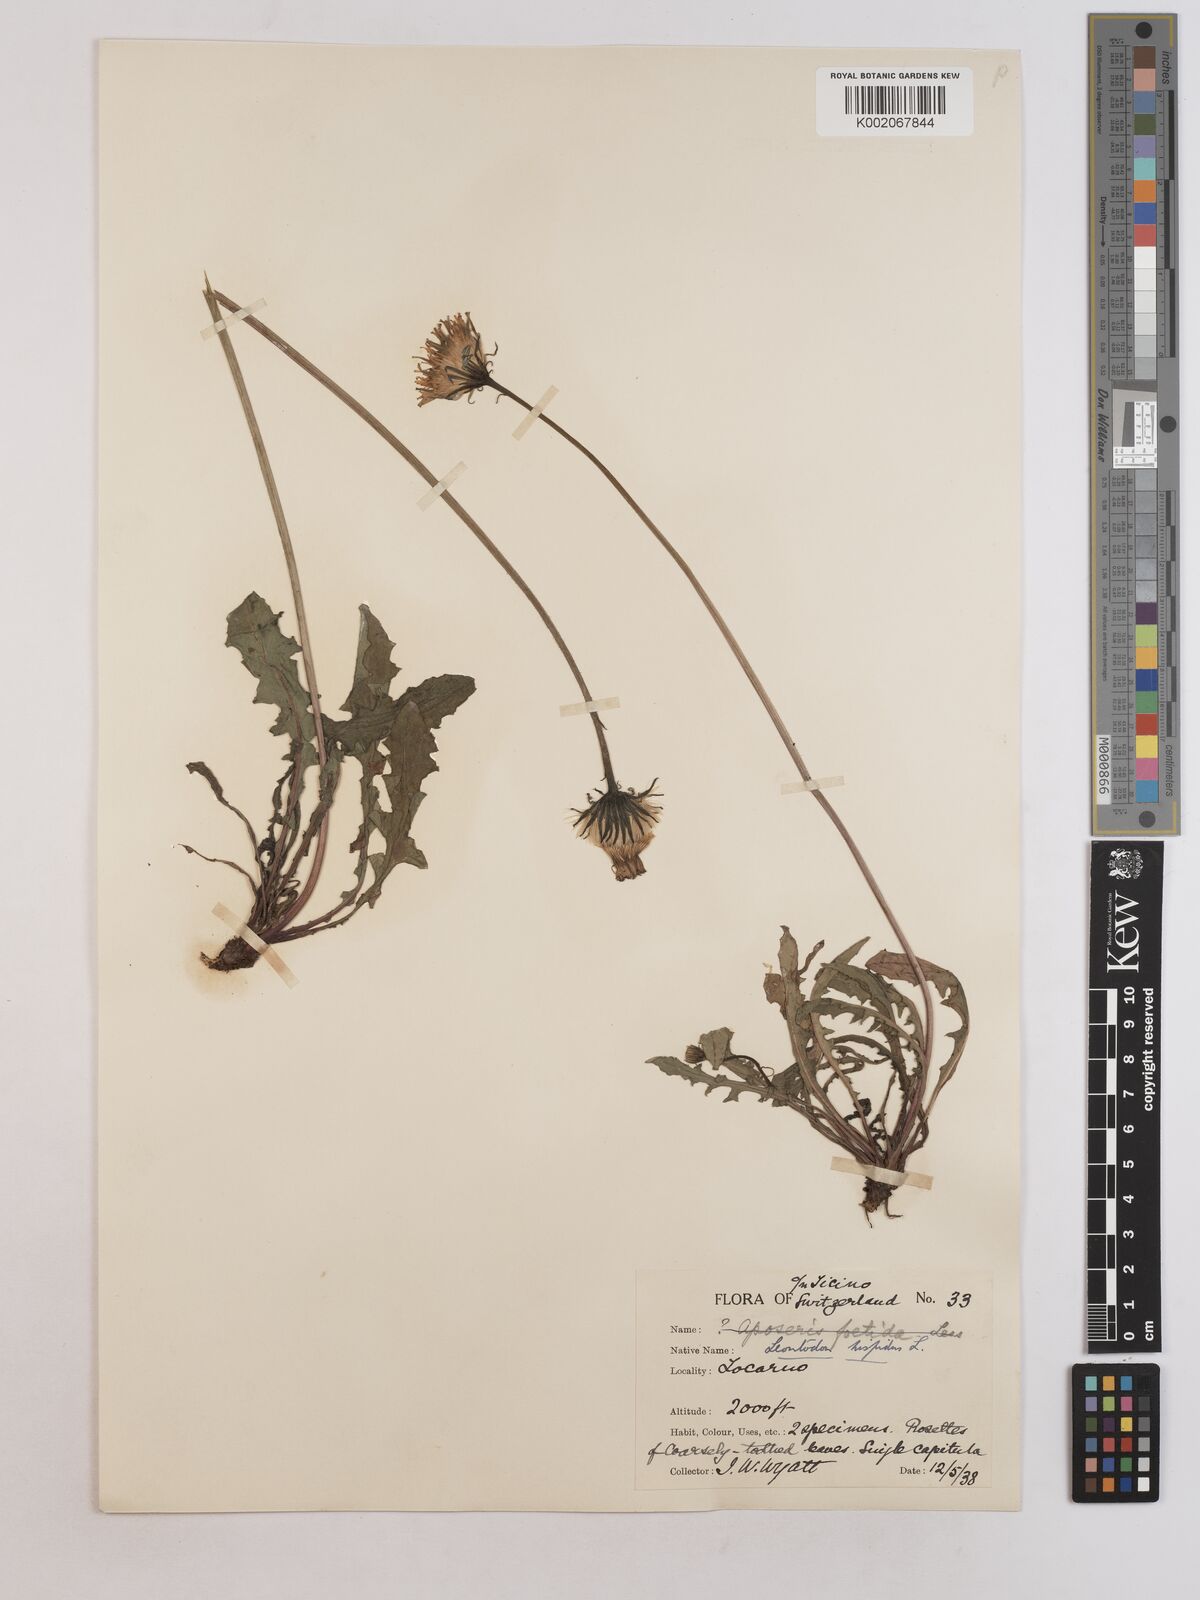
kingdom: Plantae
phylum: Tracheophyta
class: Magnoliopsida
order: Asterales
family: Asteraceae
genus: Leontodon
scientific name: Leontodon
